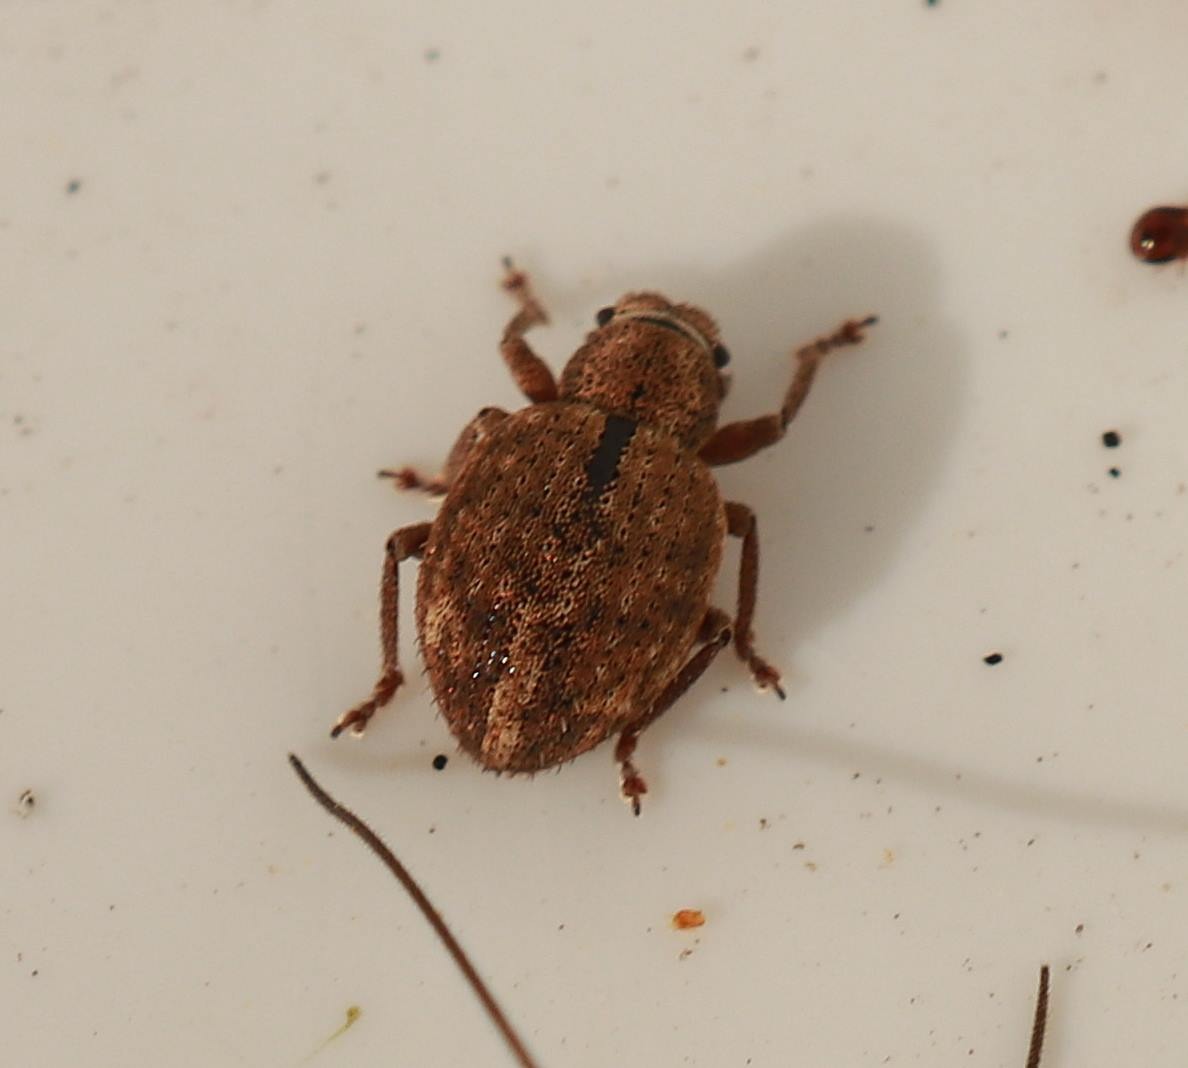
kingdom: Animalia
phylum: Arthropoda
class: Insecta
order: Coleoptera
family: Curculionidae
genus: Strophosoma
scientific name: Strophosoma melanogrammum
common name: Stribet gråsnude
